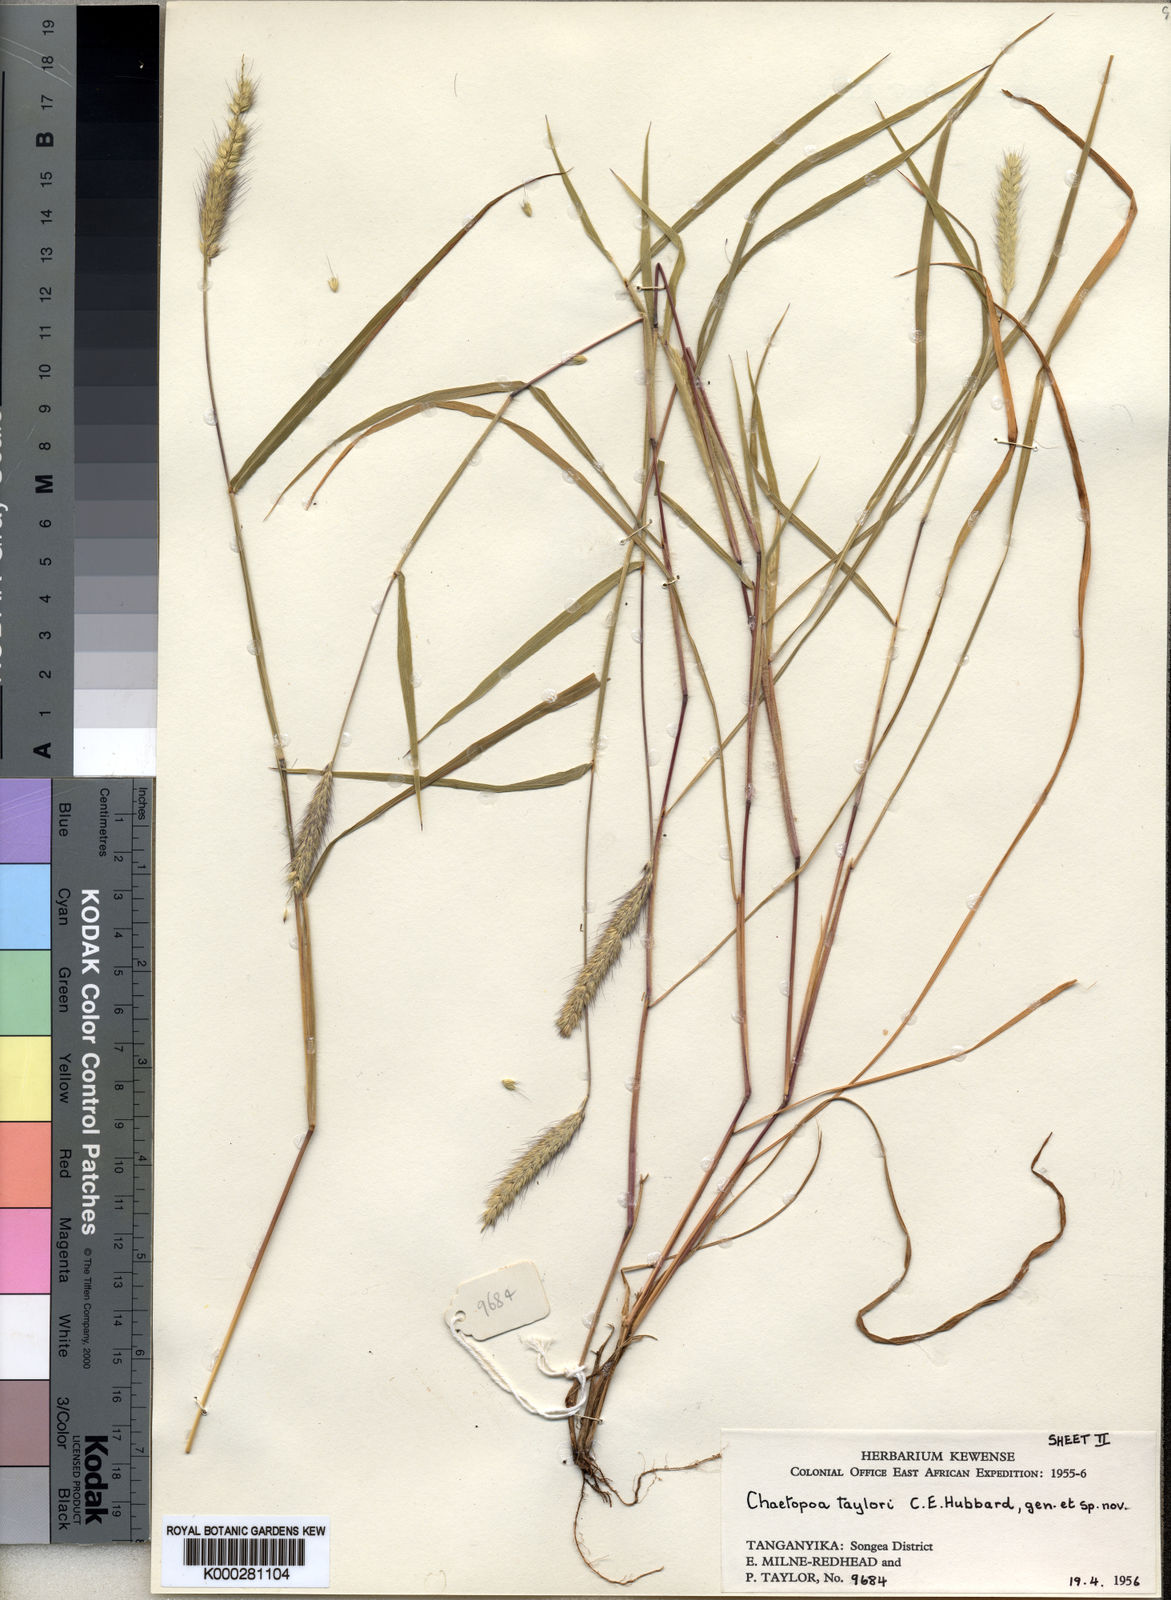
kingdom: Plantae
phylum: Tracheophyta
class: Liliopsida
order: Poales
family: Poaceae
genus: Chaetopoa
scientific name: Chaetopoa taylorii
